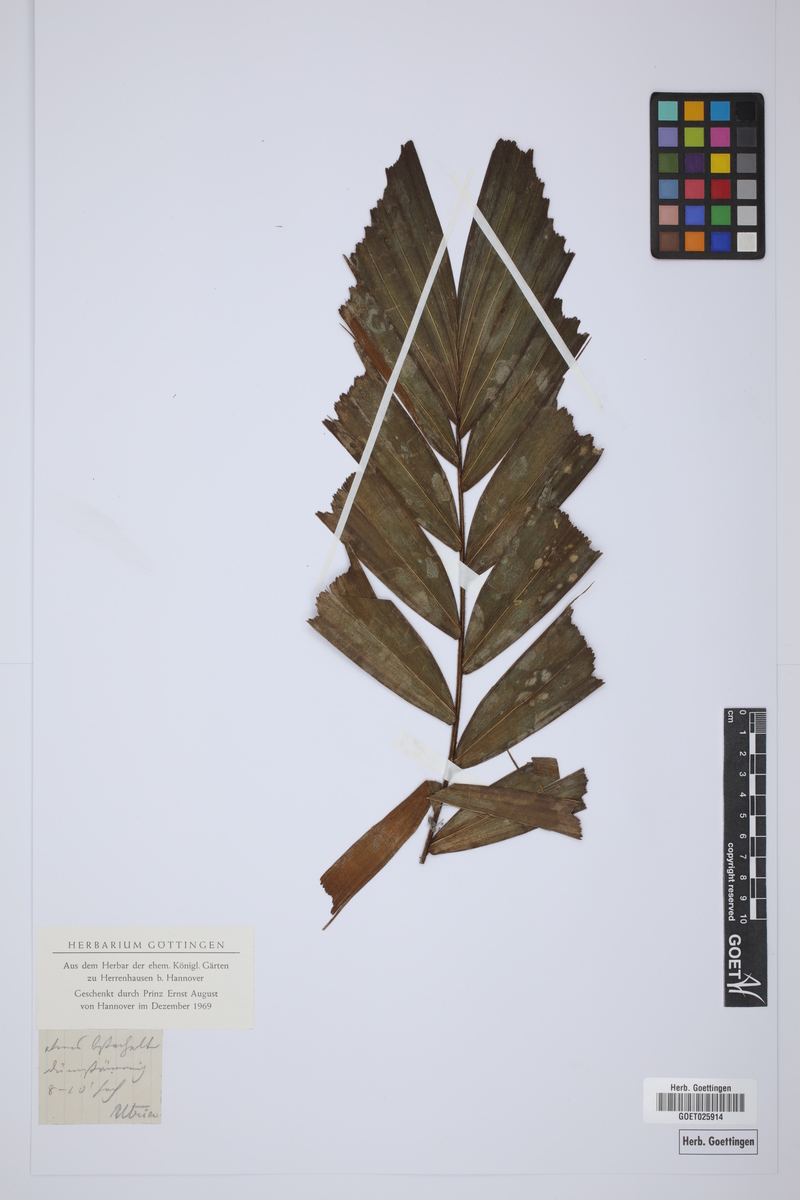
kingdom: Plantae
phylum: Tracheophyta
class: Liliopsida
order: Arecales
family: Arecaceae
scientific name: Arecaceae
